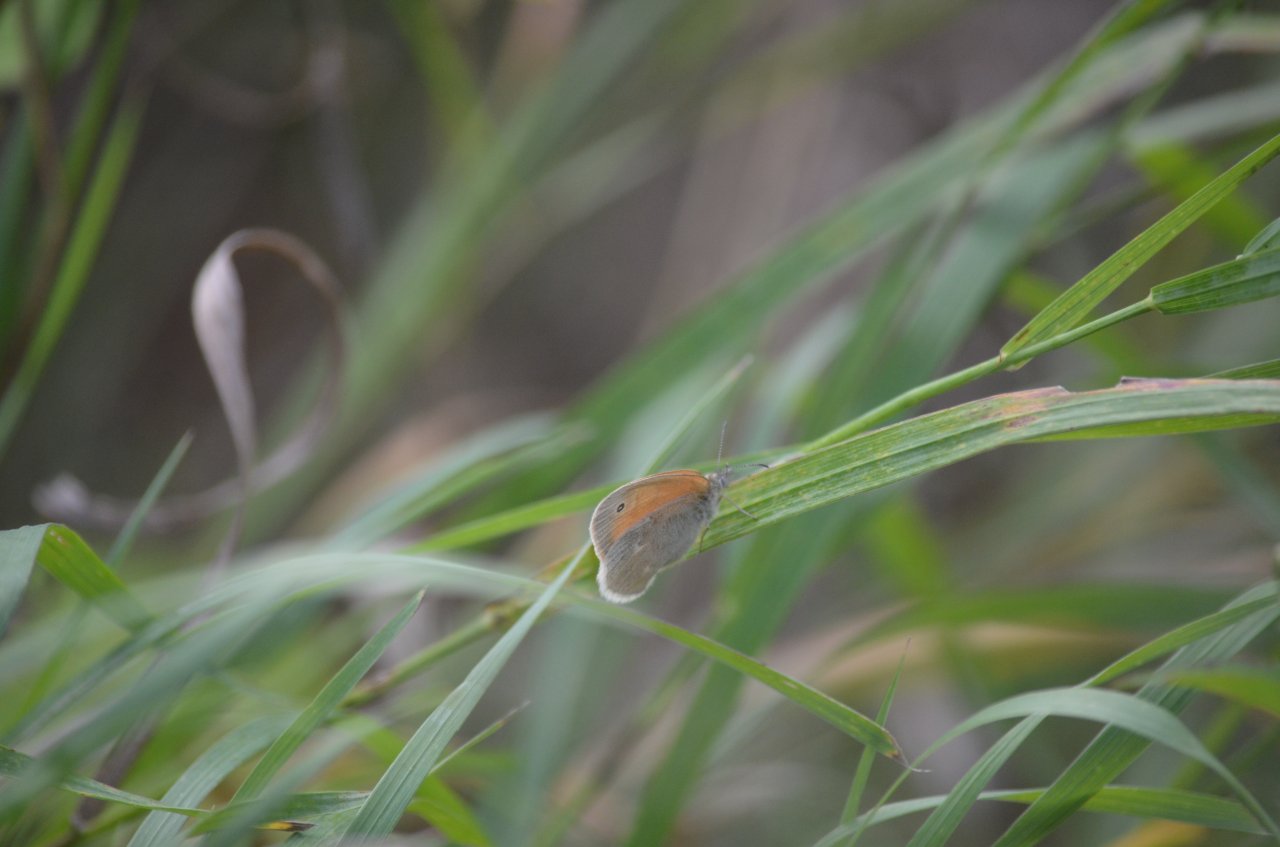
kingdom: Animalia
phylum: Arthropoda
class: Insecta
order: Lepidoptera
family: Nymphalidae
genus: Coenonympha
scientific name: Coenonympha tullia
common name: Large Heath
